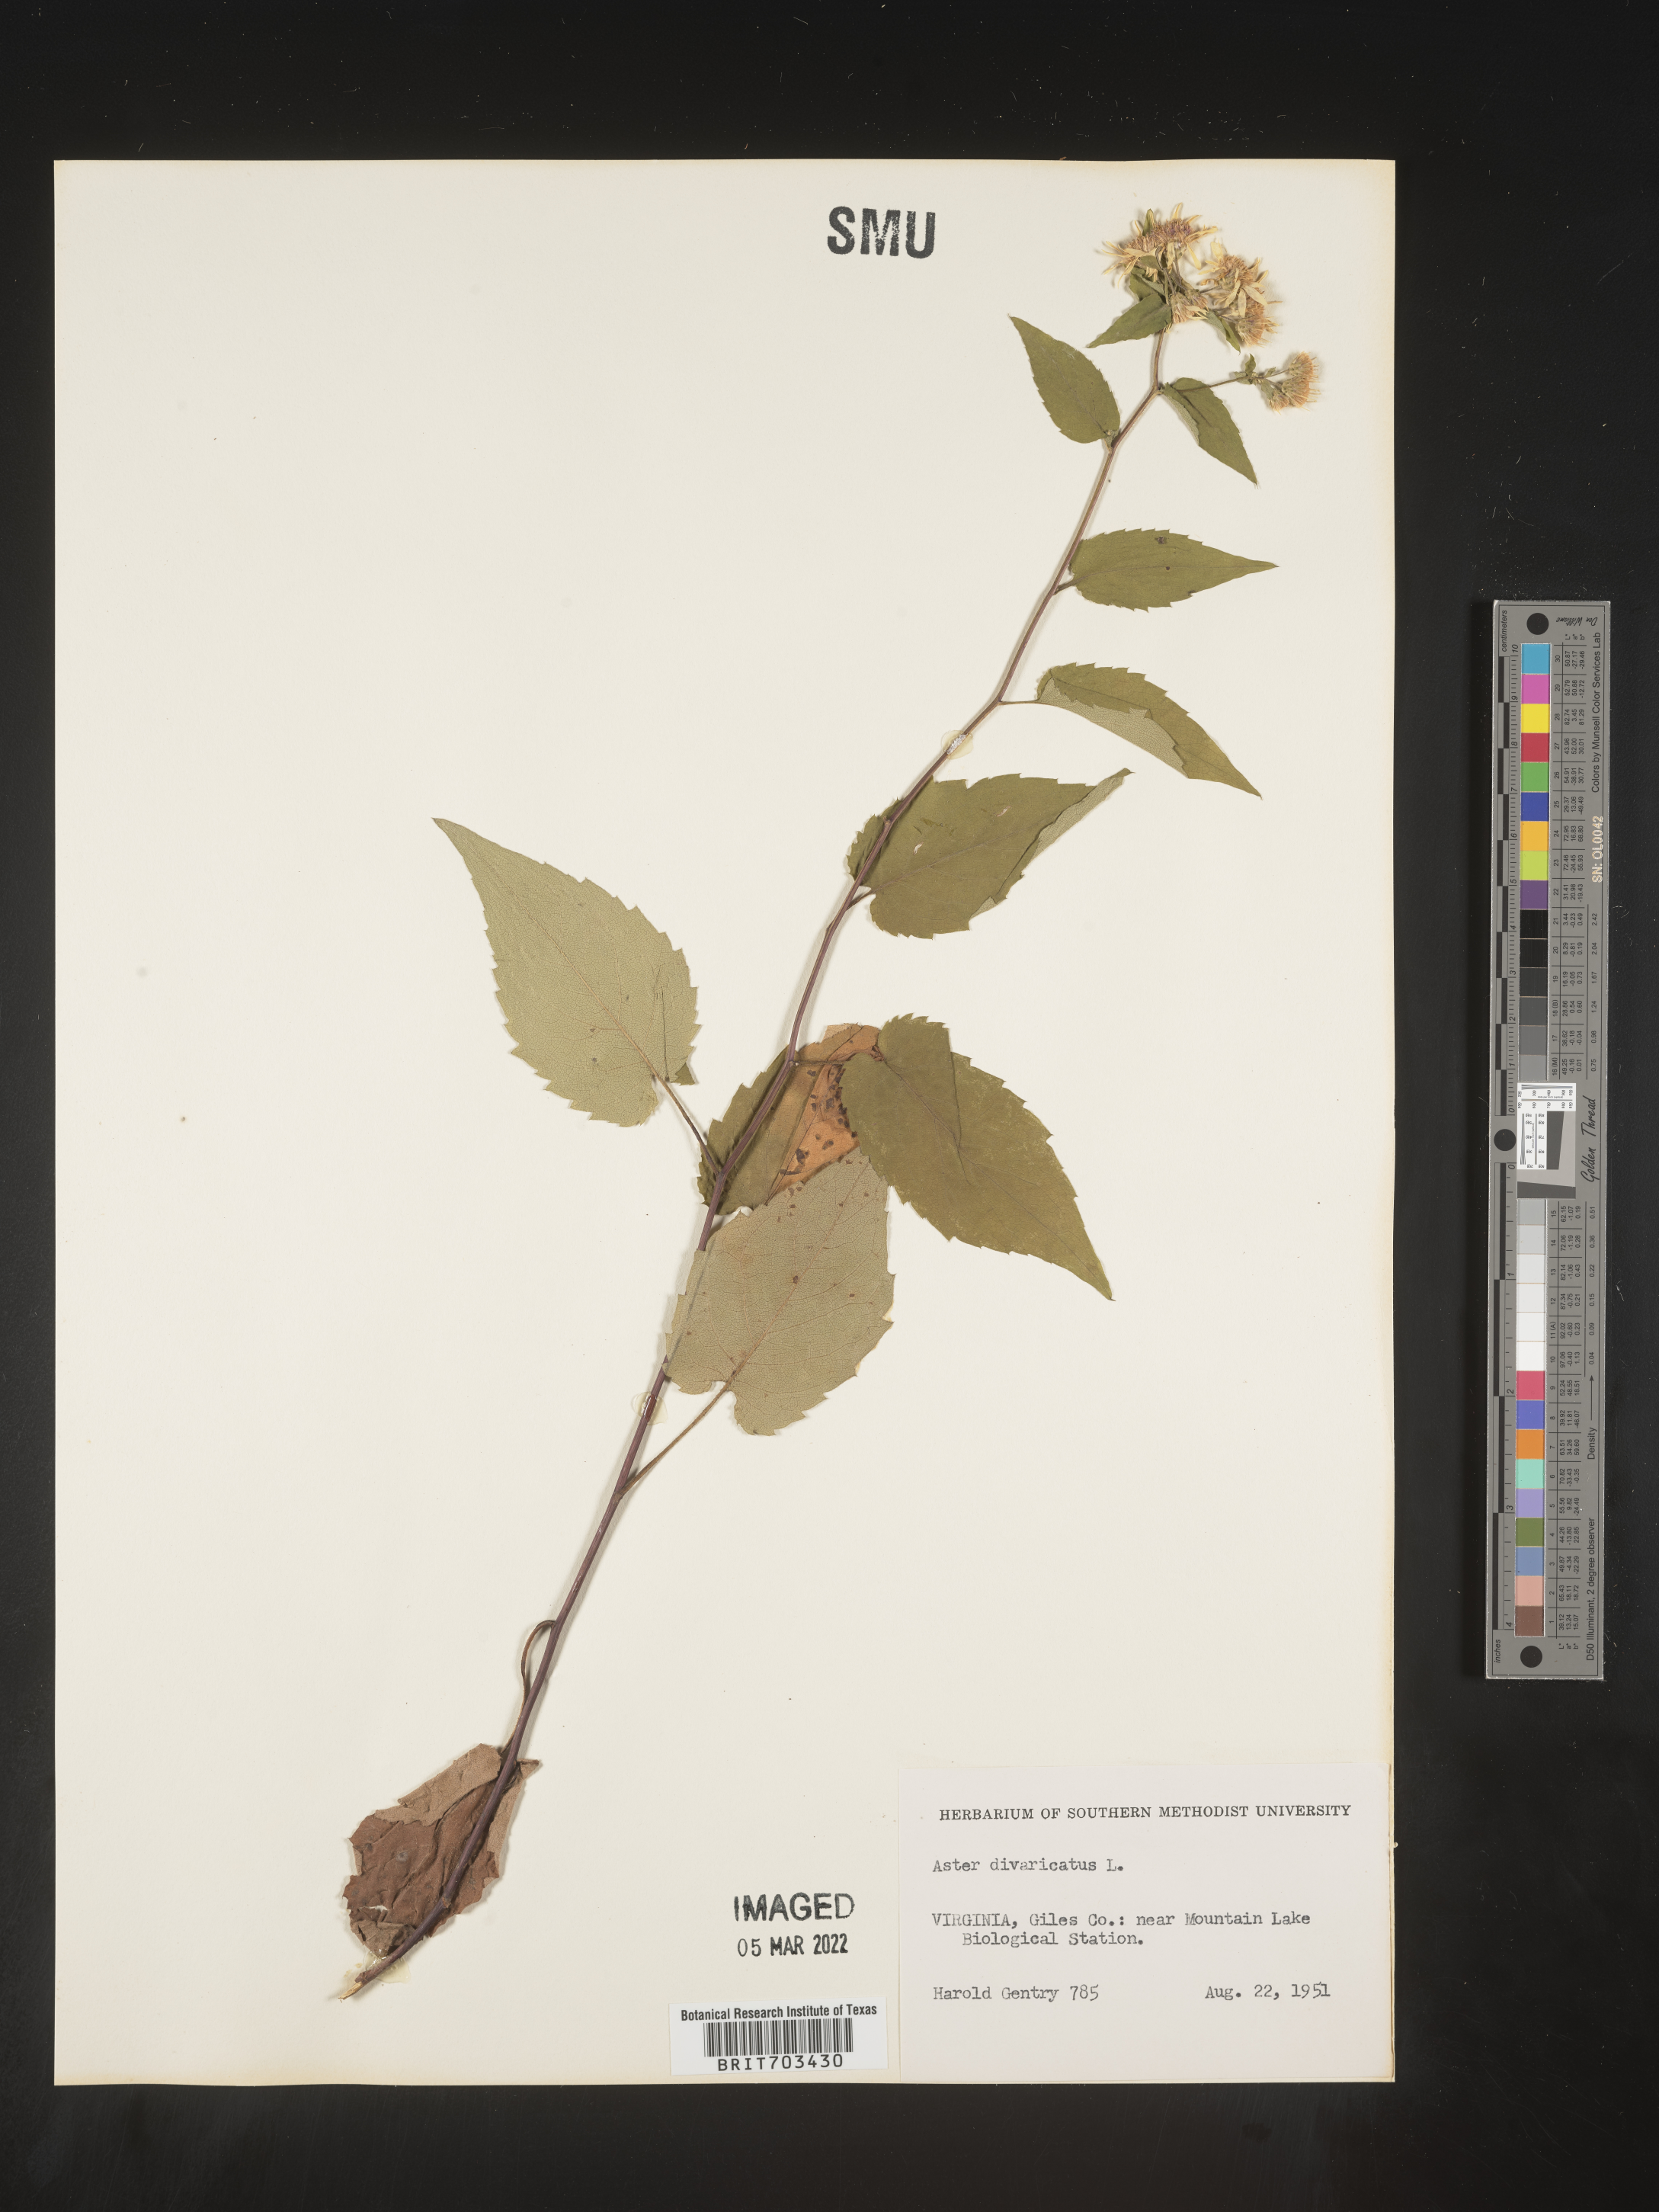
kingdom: Plantae
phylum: Tracheophyta
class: Magnoliopsida
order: Asterales
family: Asteraceae
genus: Eurybia
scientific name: Eurybia divaricata
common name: White wood aster
